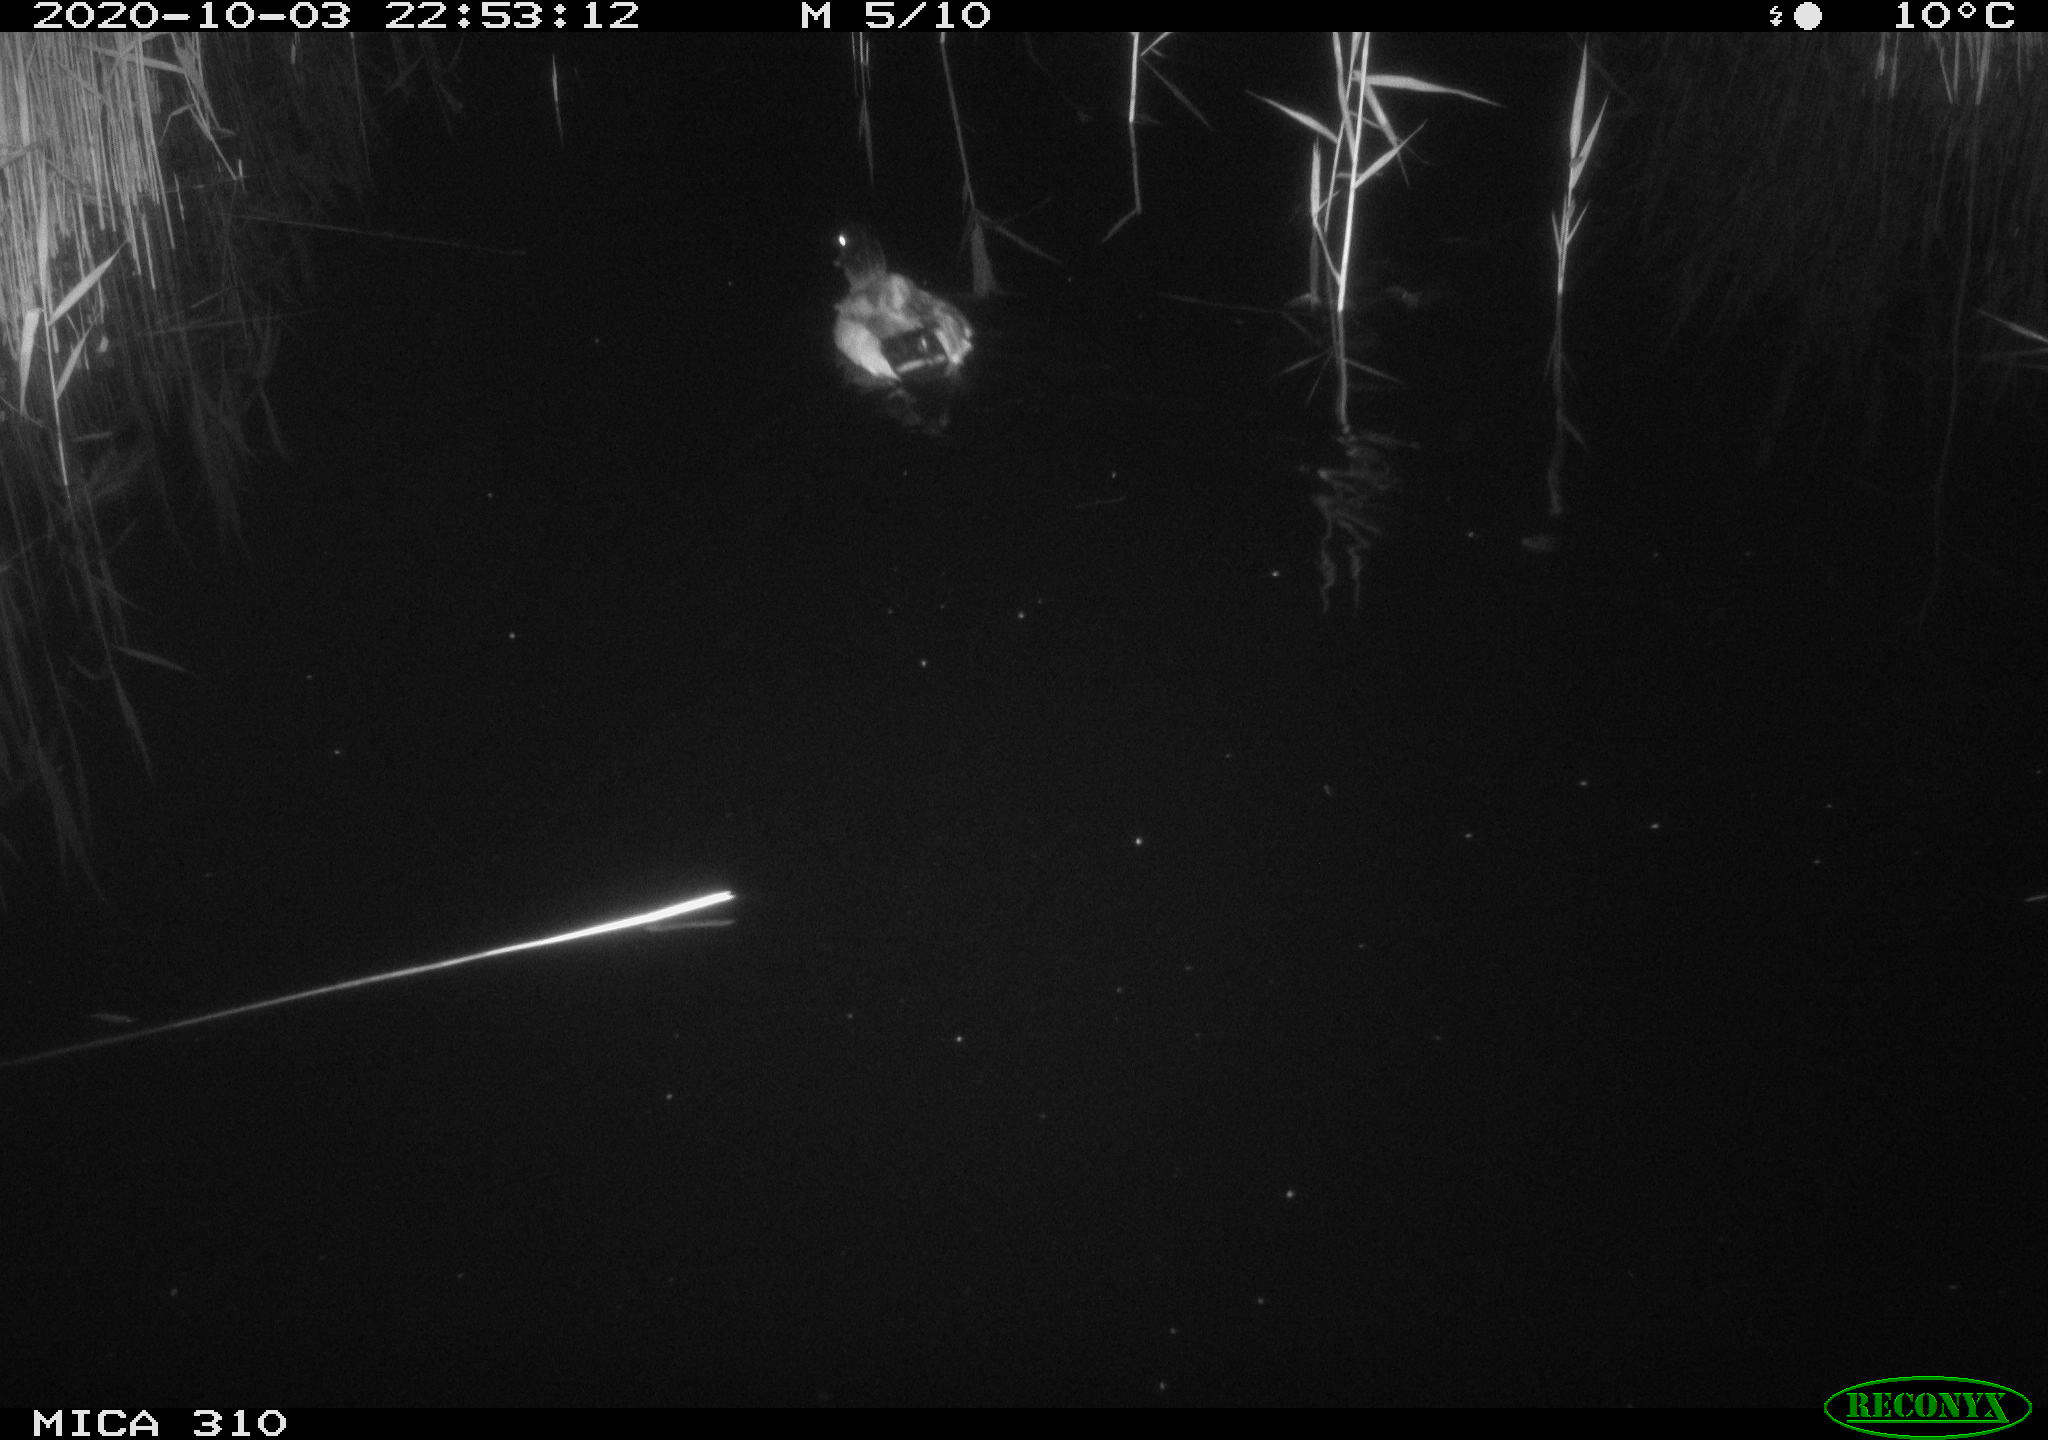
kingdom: Animalia
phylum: Chordata
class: Aves
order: Anseriformes
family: Anatidae
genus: Anas
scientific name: Anas platyrhynchos
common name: Mallard
